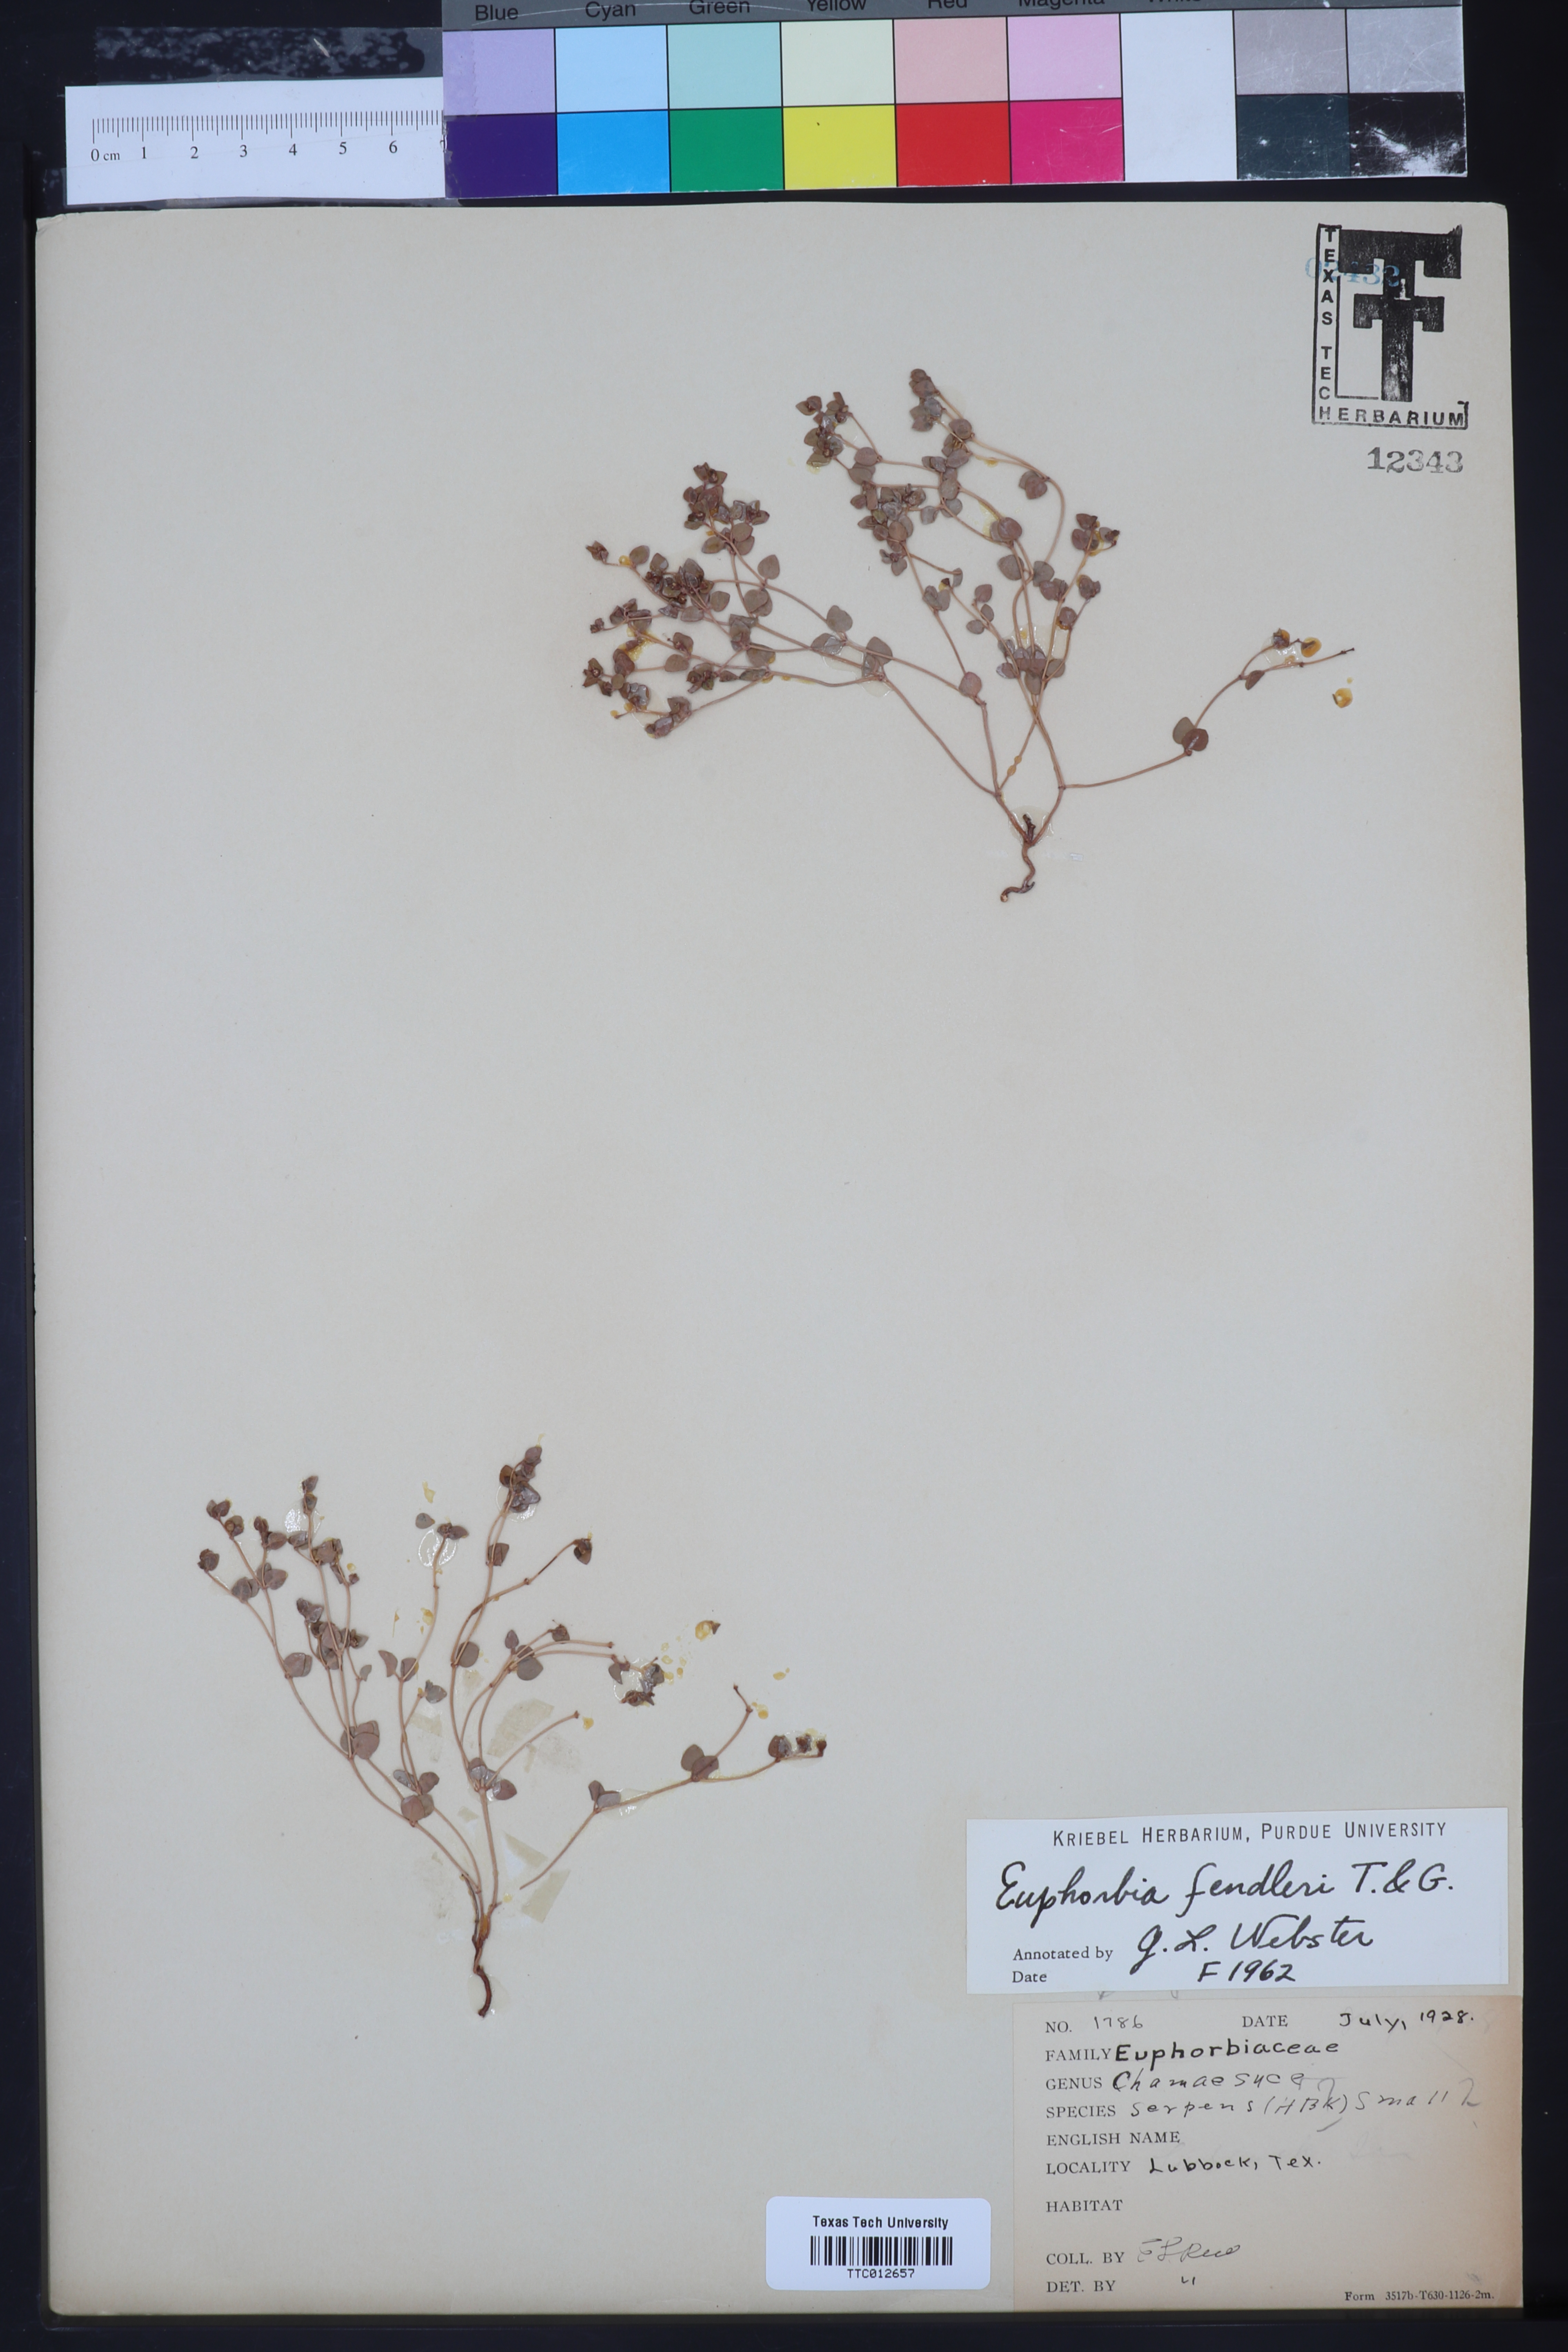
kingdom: Plantae
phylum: Tracheophyta
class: Magnoliopsida
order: Malpighiales
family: Euphorbiaceae
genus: Euphorbia
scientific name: Euphorbia fendleri
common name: Fendler's euphorbia
